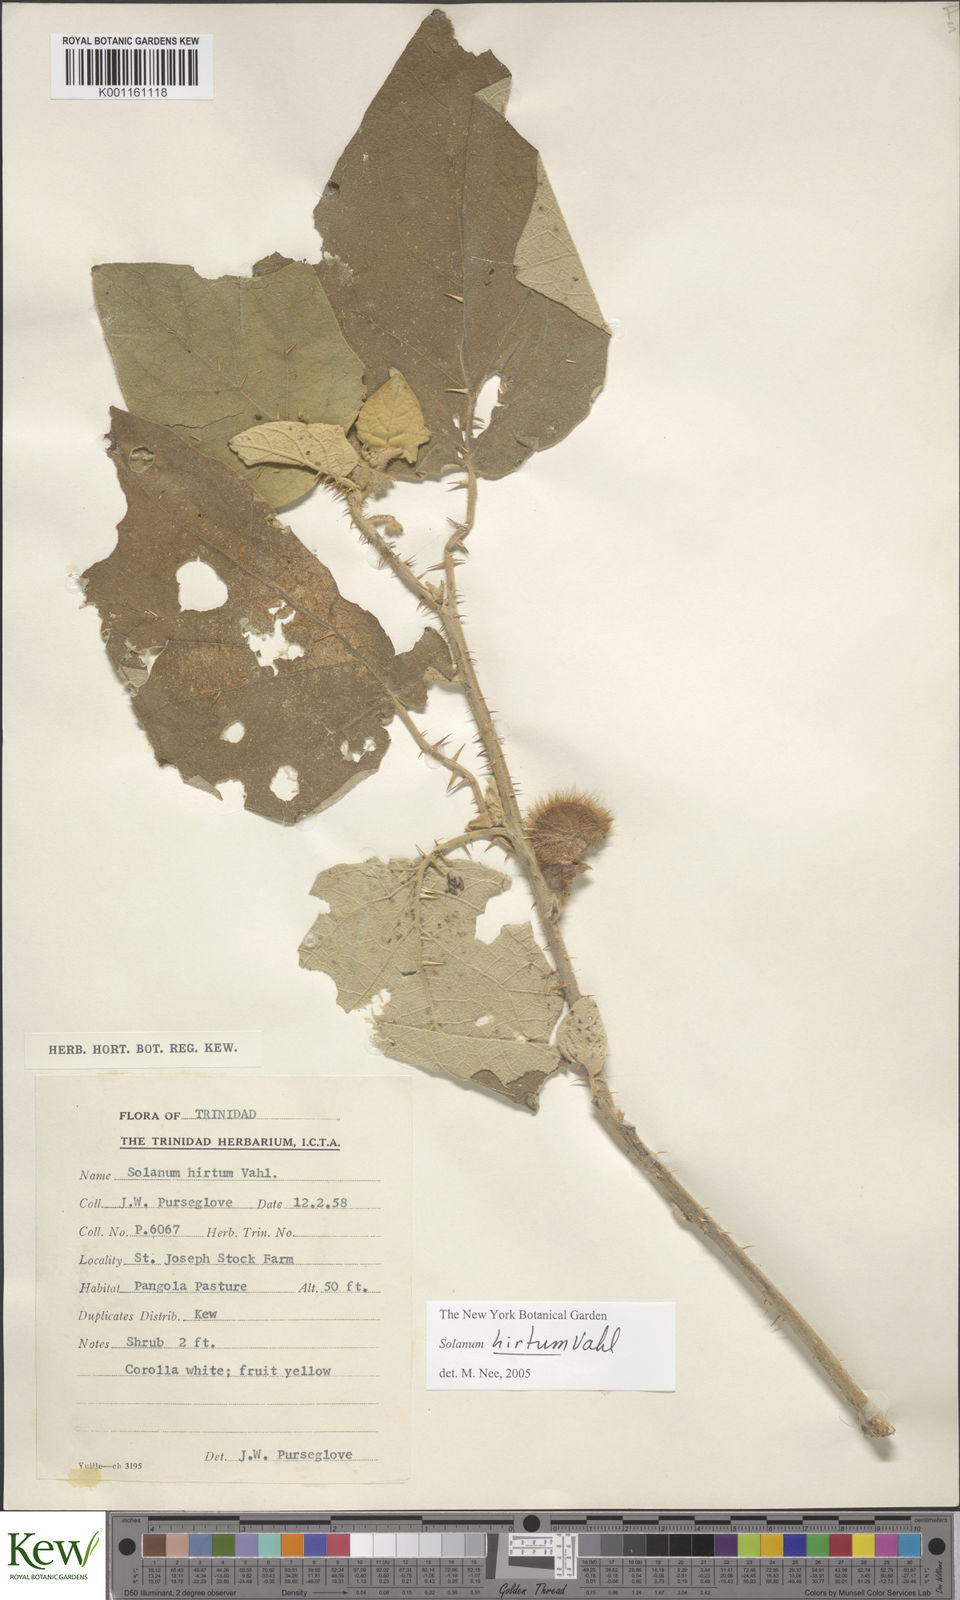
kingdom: Plantae
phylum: Tracheophyta
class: Magnoliopsida
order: Solanales
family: Solanaceae
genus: Solanum
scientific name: Solanum hirtum
